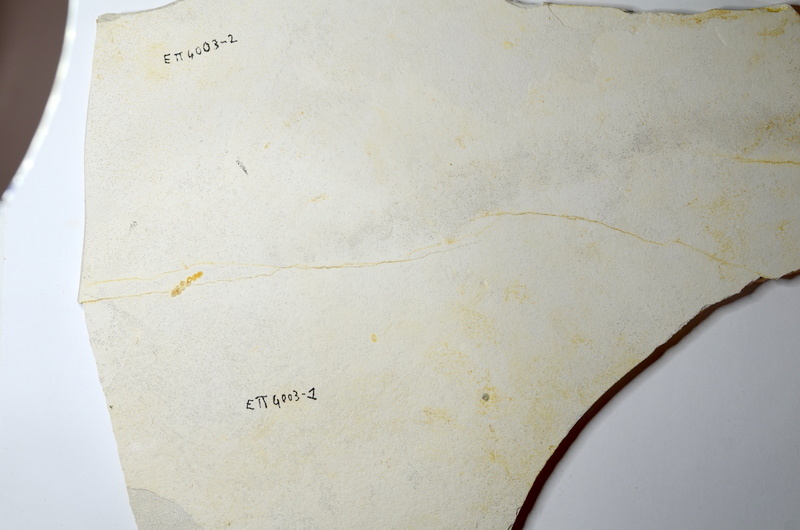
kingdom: Animalia
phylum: Chordata
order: Salmoniformes
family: Orthogonikleithridae
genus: Orthogonikleithrus
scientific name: Orthogonikleithrus hoelli
